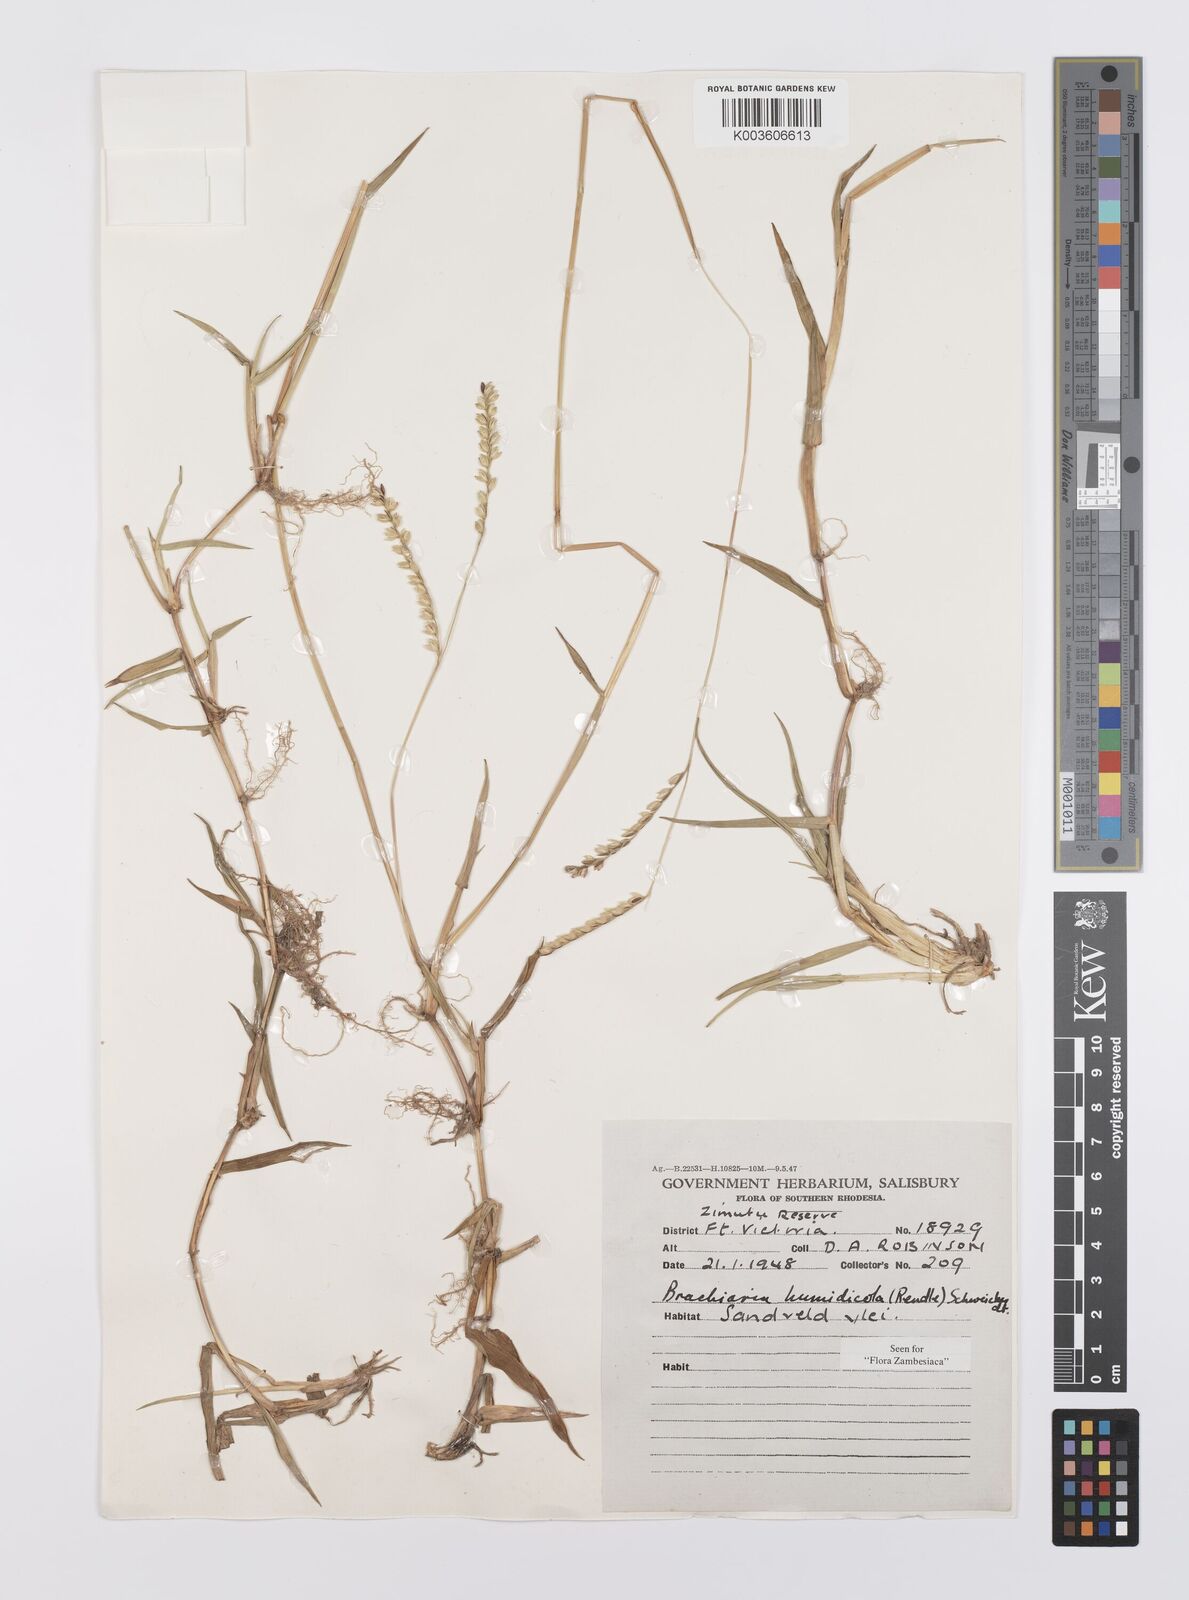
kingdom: Plantae
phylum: Tracheophyta
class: Liliopsida
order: Poales
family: Poaceae
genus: Urochloa
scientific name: Urochloa dictyoneura
